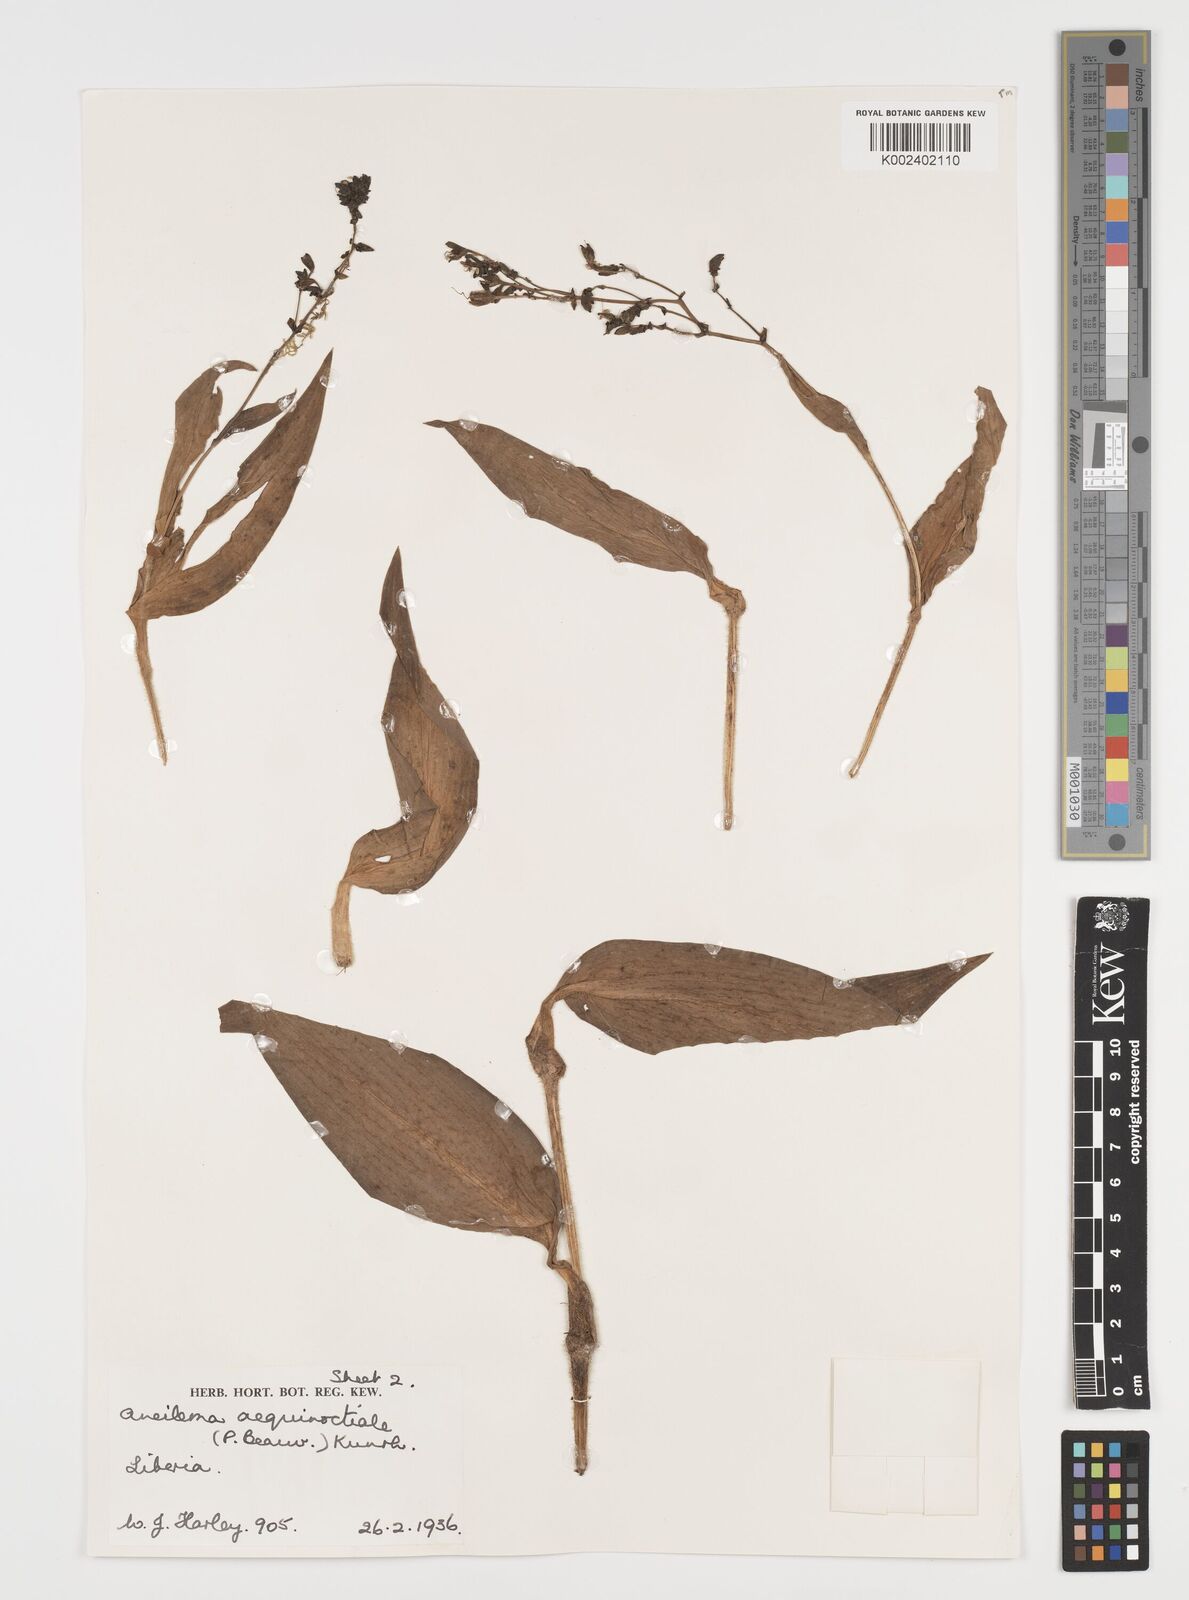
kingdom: Plantae
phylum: Tracheophyta
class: Liliopsida
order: Commelinales
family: Commelinaceae
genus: Aneilema
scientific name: Aneilema aequinoctiale
